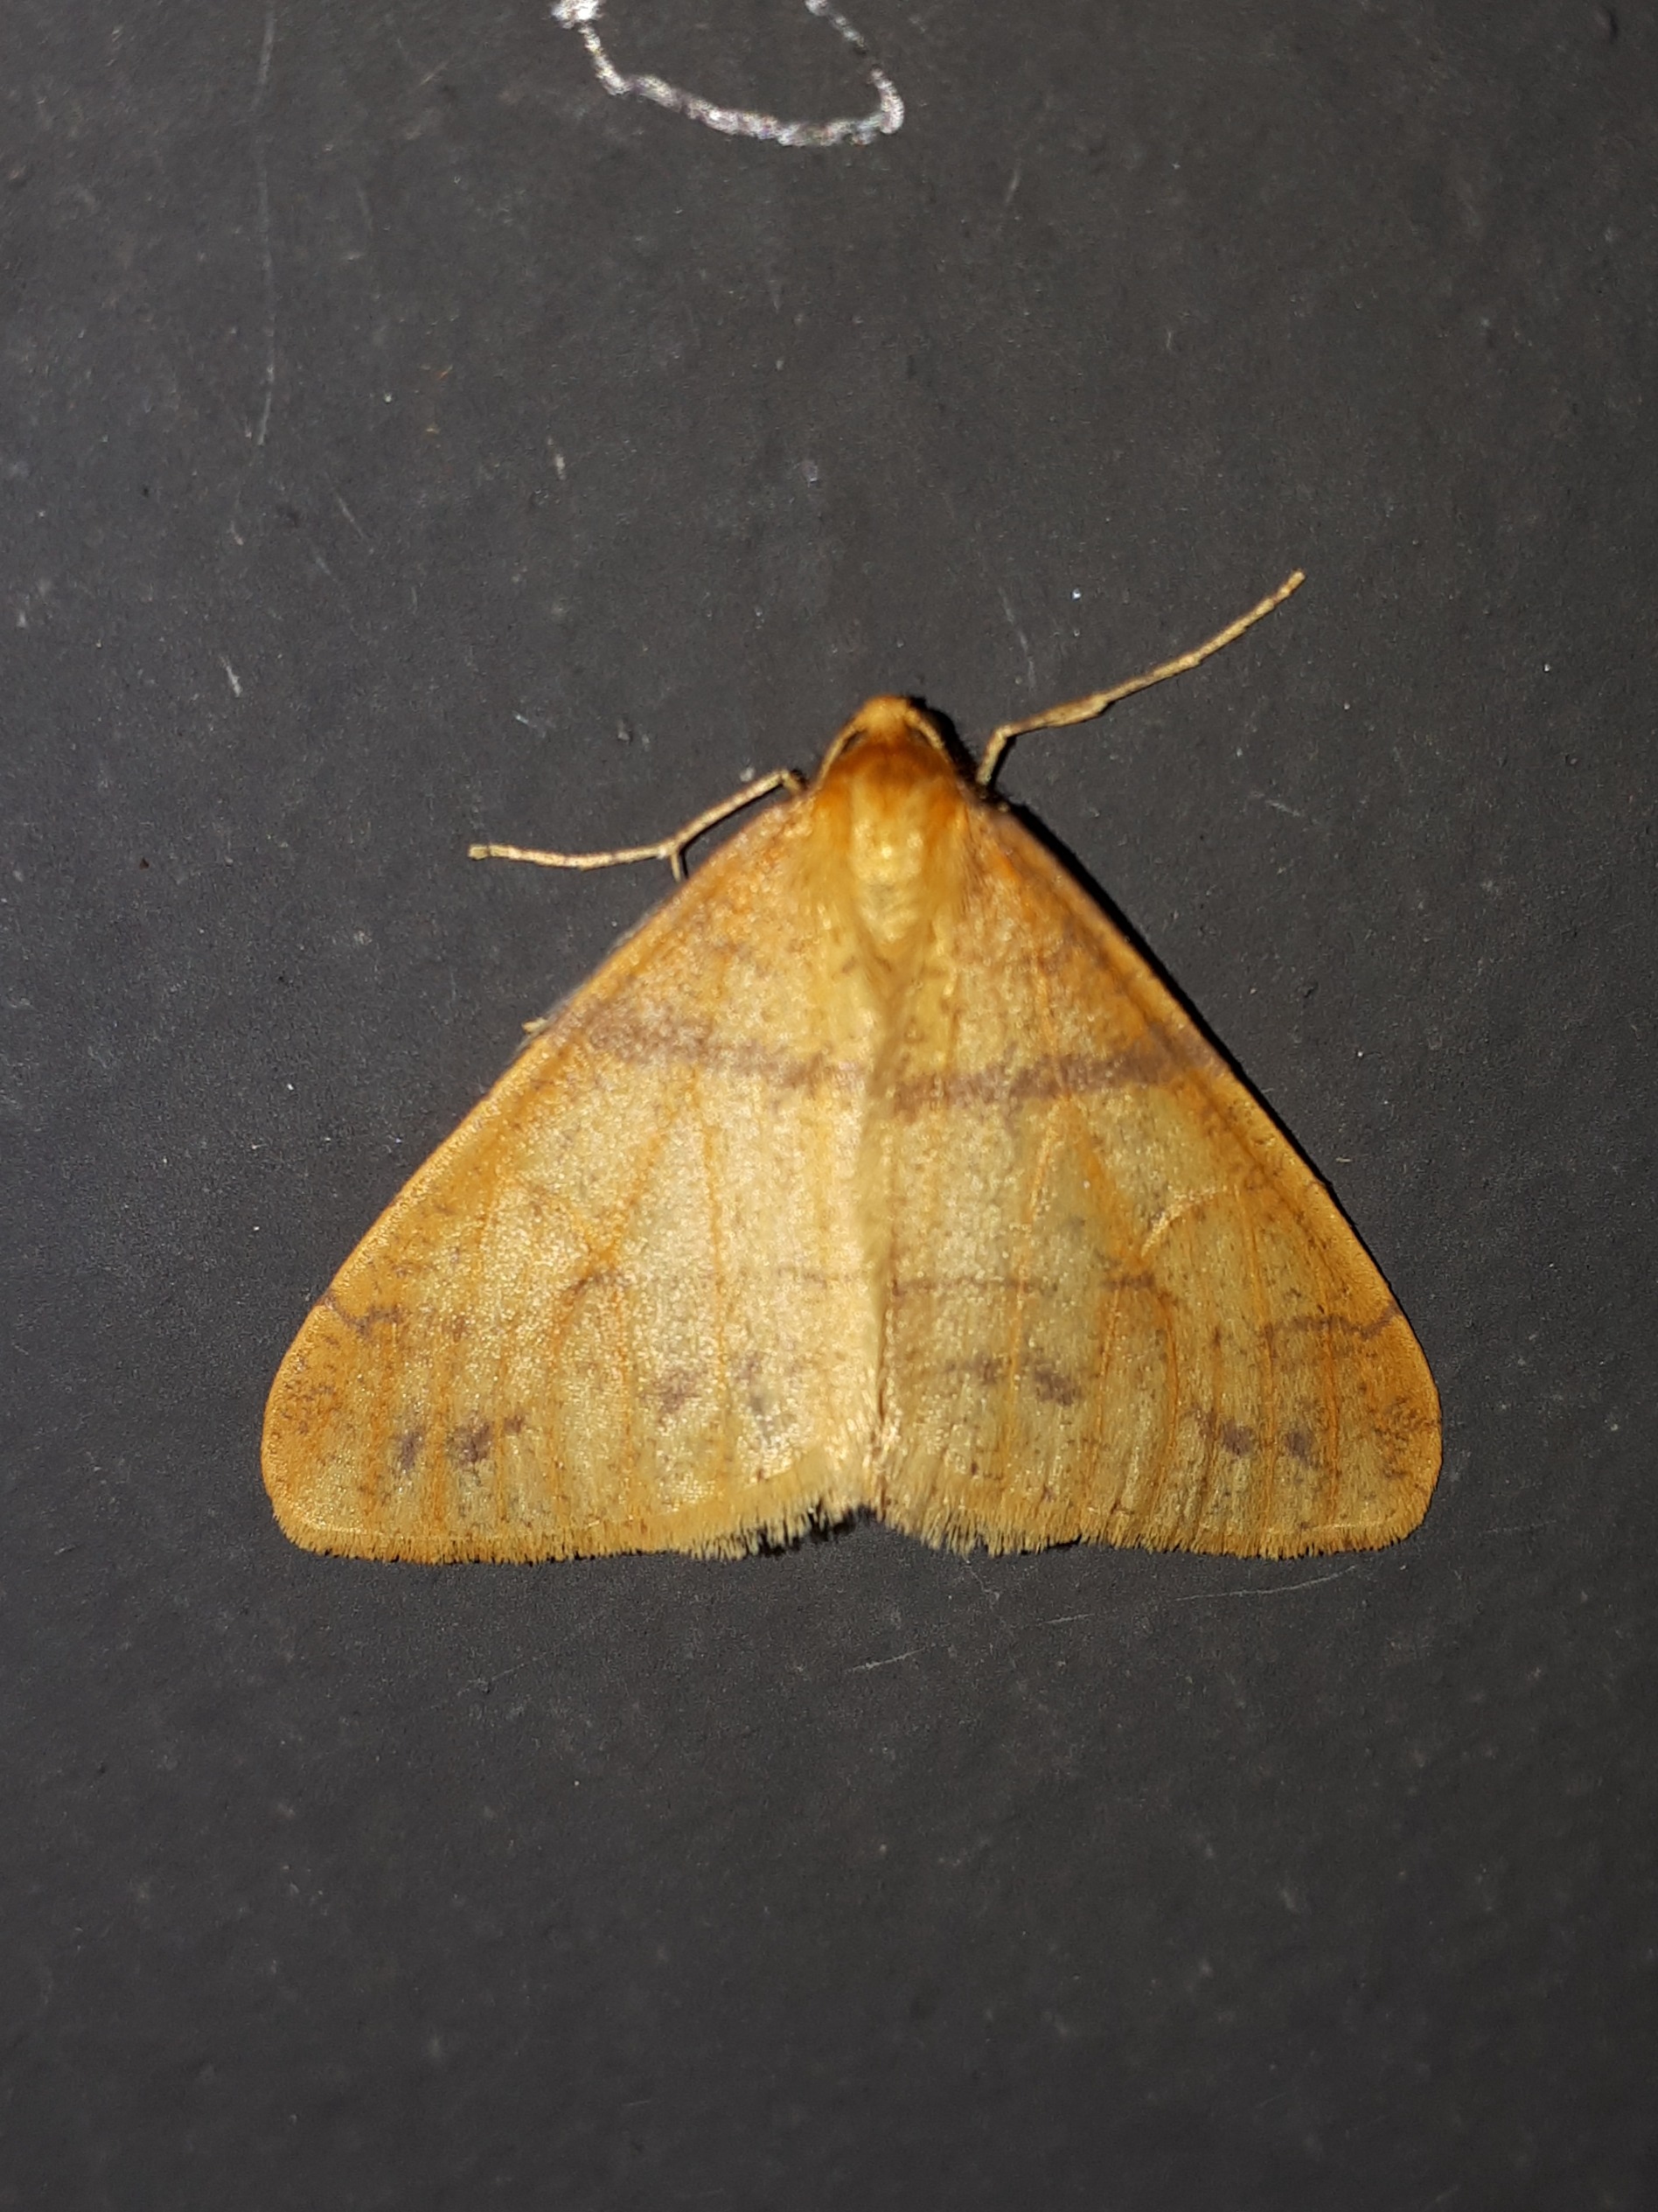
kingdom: Animalia
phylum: Arthropoda
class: Insecta
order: Lepidoptera
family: Geometridae
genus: Agriopis
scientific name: Agriopis aurantiaria
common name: Guldgul frostmåler
